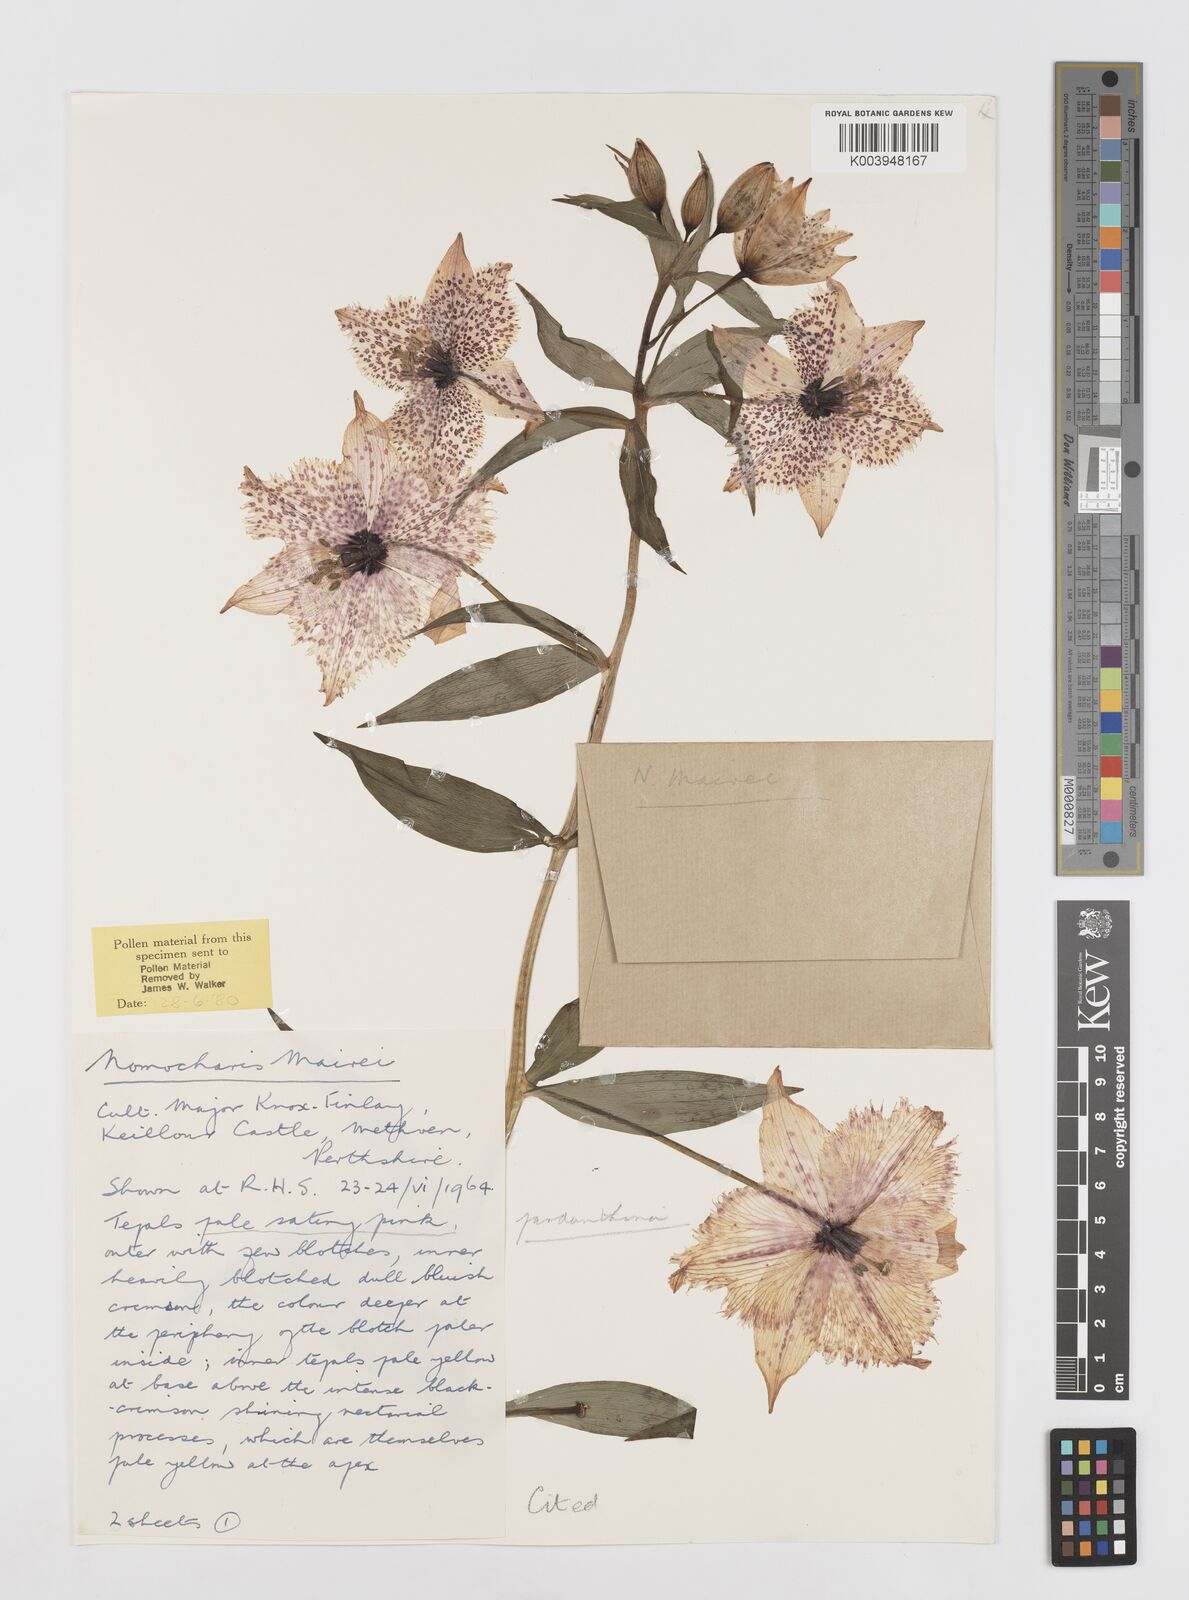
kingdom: Plantae
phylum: Tracheophyta
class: Liliopsida
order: Liliales
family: Liliaceae
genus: Lilium
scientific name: Lilium pardanthinum
